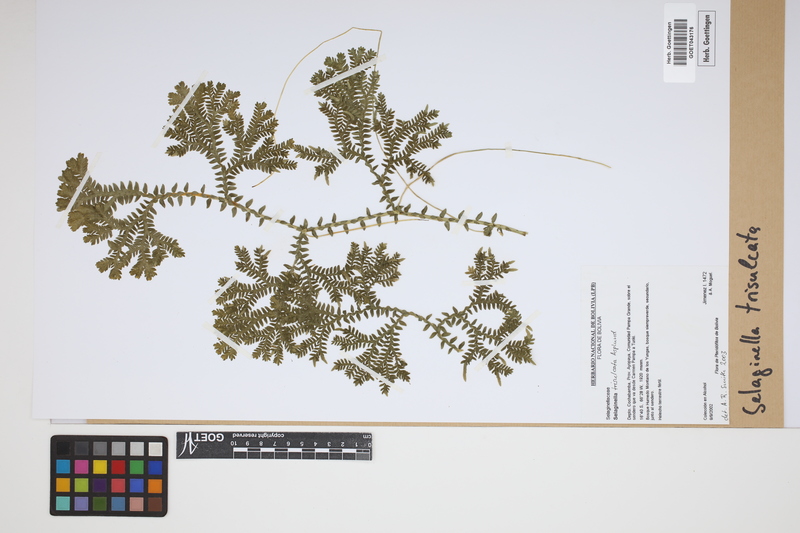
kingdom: Plantae
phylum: Tracheophyta
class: Lycopodiopsida
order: Selaginellales
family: Selaginellaceae
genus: Selaginella
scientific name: Selaginella trisulcata
